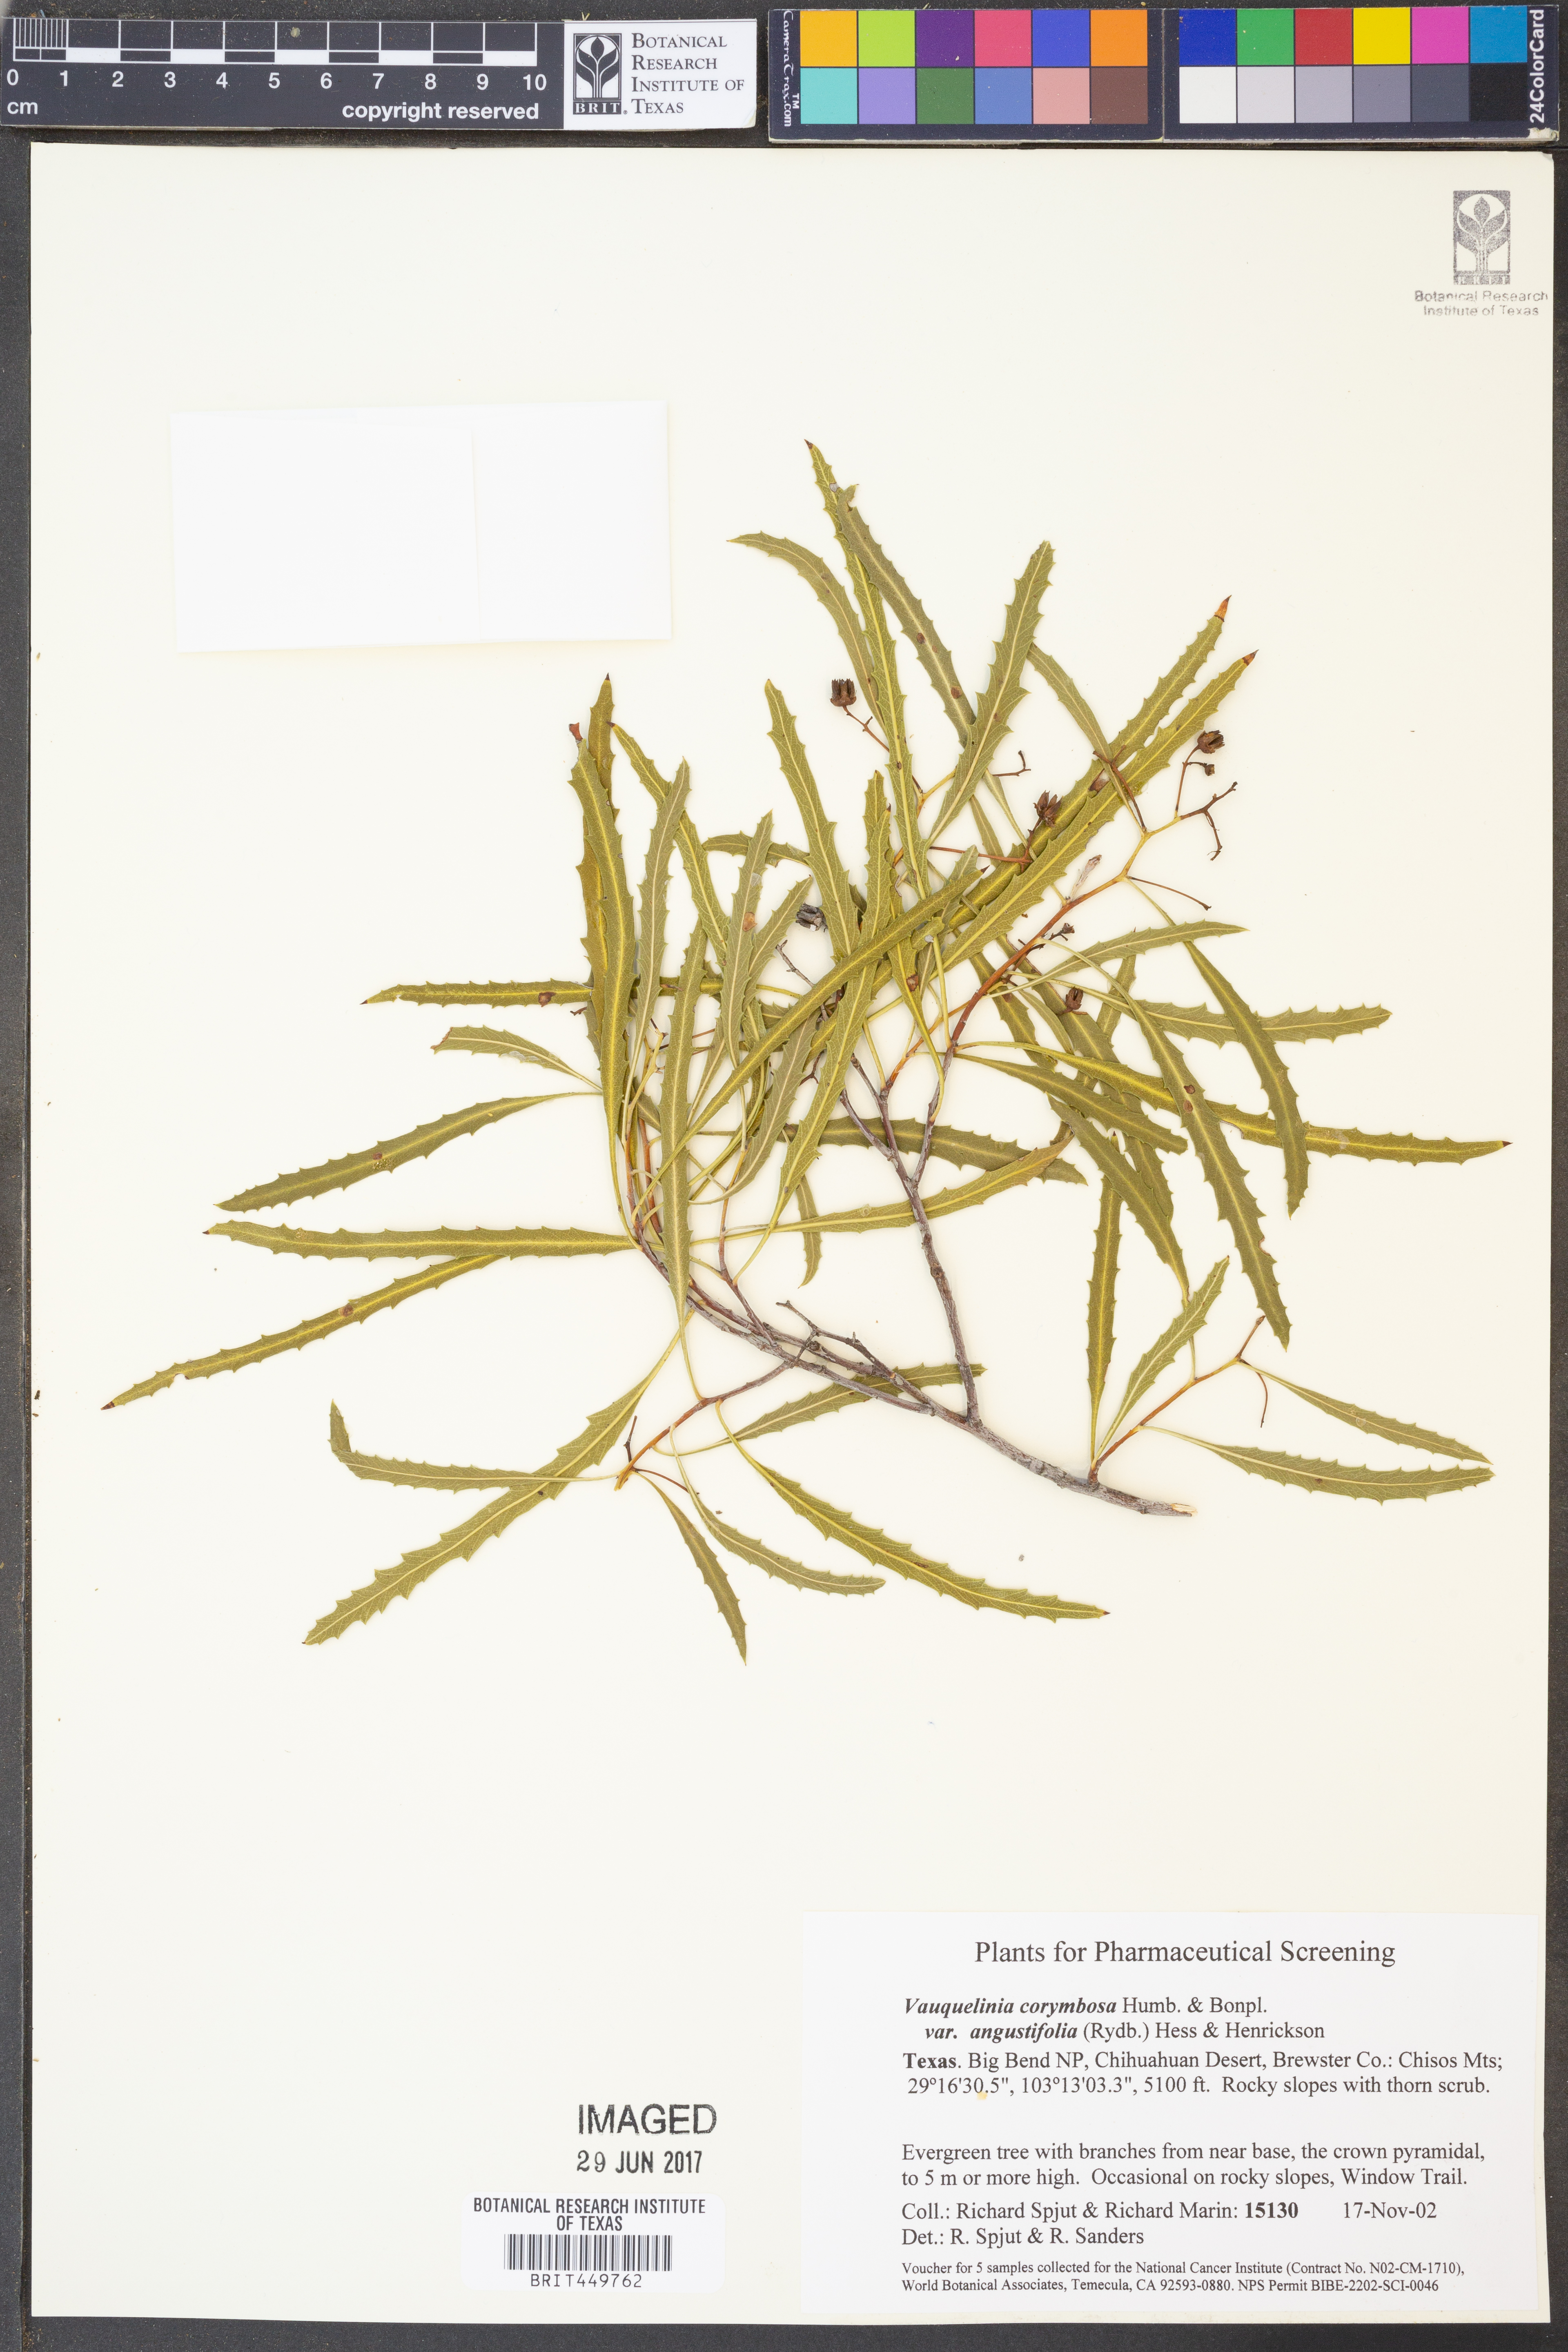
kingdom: Plantae
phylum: Tracheophyta
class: Magnoliopsida
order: Rosales
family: Rosaceae
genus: Vauquelinia
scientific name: Vauquelinia corymbosa
